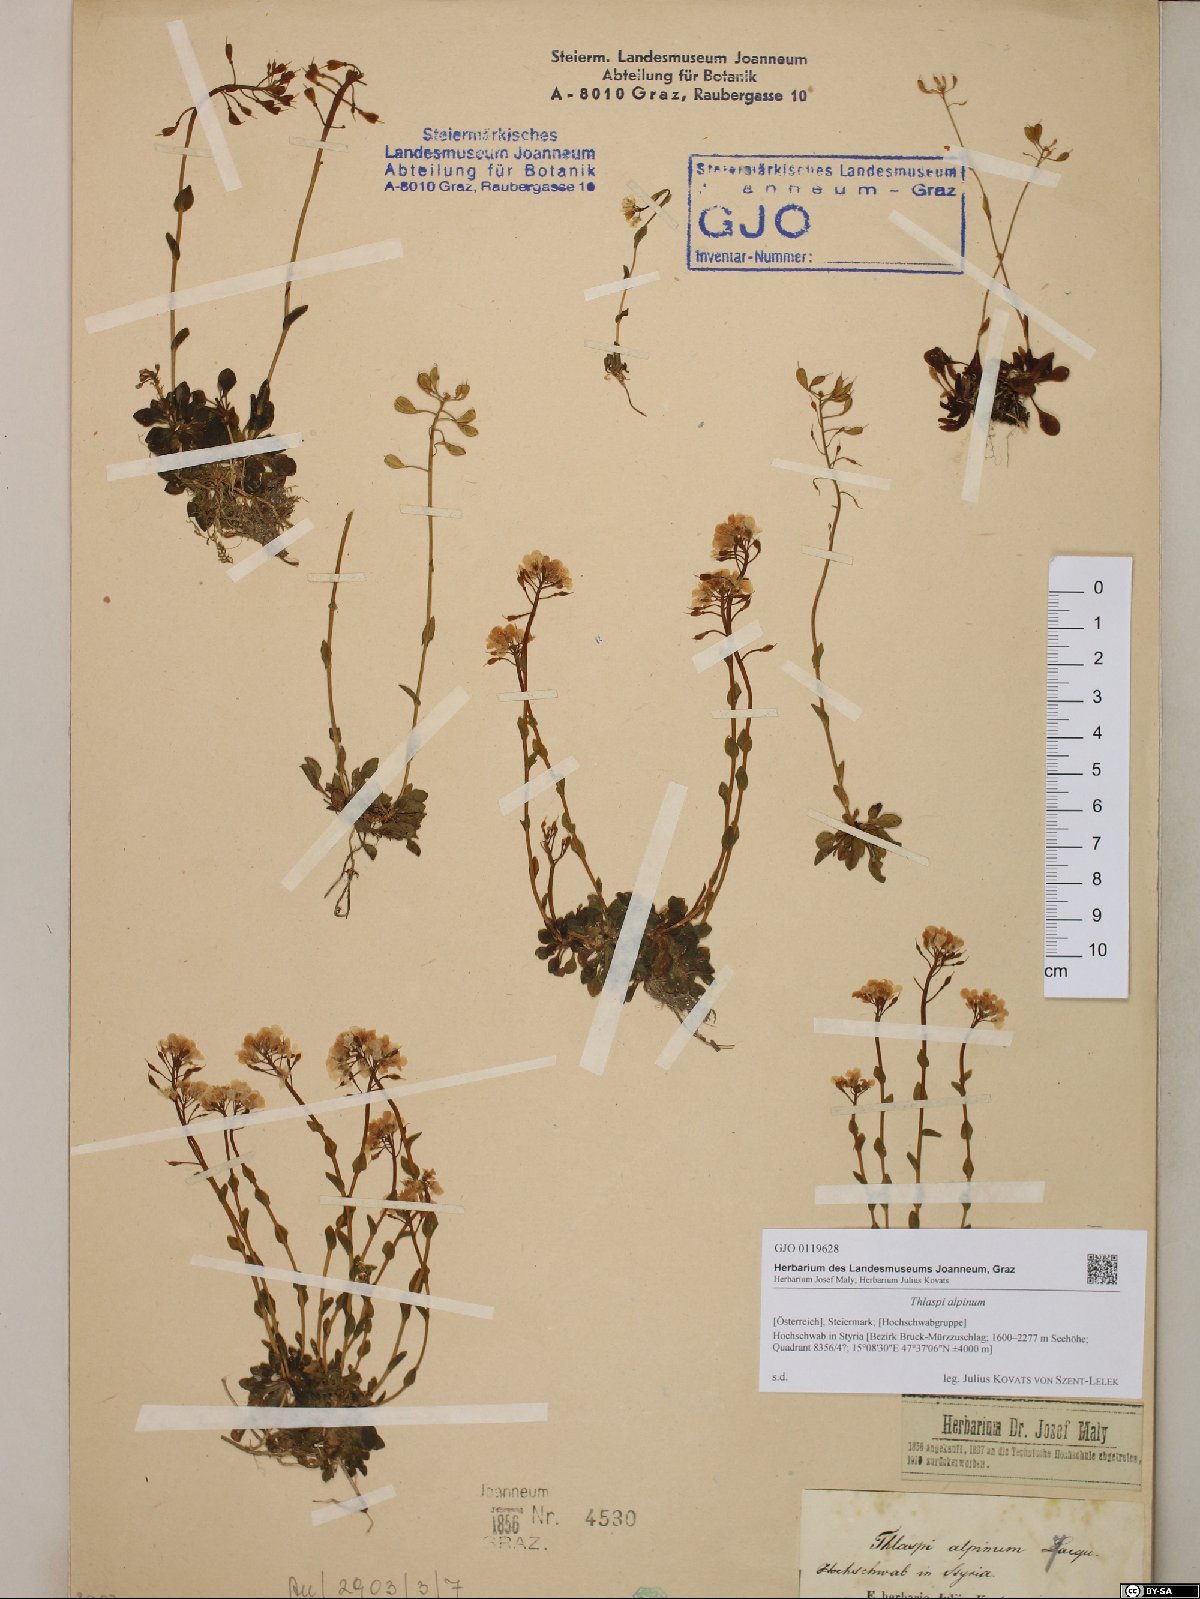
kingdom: Plantae
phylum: Tracheophyta
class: Magnoliopsida
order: Brassicales
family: Brassicaceae
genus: Noccaea
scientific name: Noccaea alpestris
